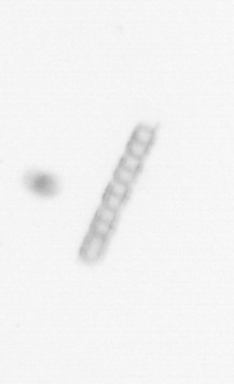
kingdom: Chromista
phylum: Ochrophyta
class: Bacillariophyceae
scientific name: Bacillariophyceae
